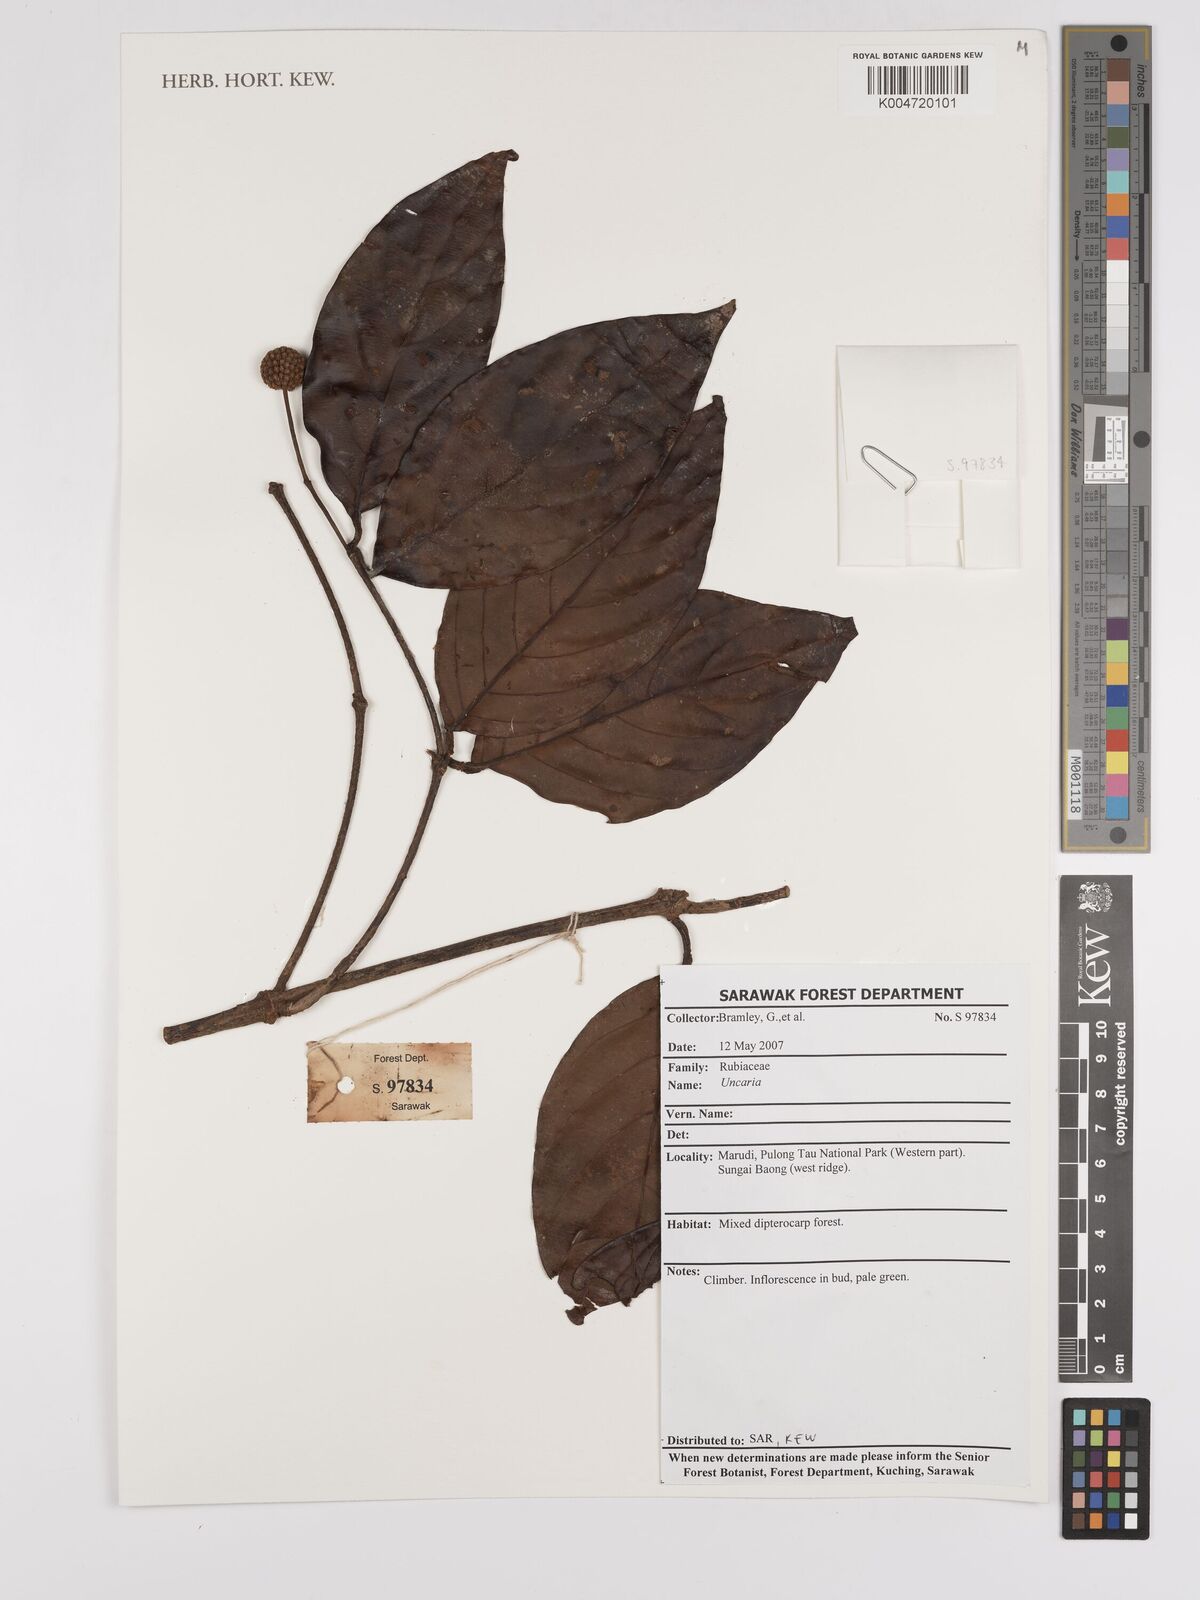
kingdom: Plantae
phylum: Tracheophyta
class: Magnoliopsida
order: Gentianales
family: Rubiaceae
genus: Uncaria
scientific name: Uncaria
